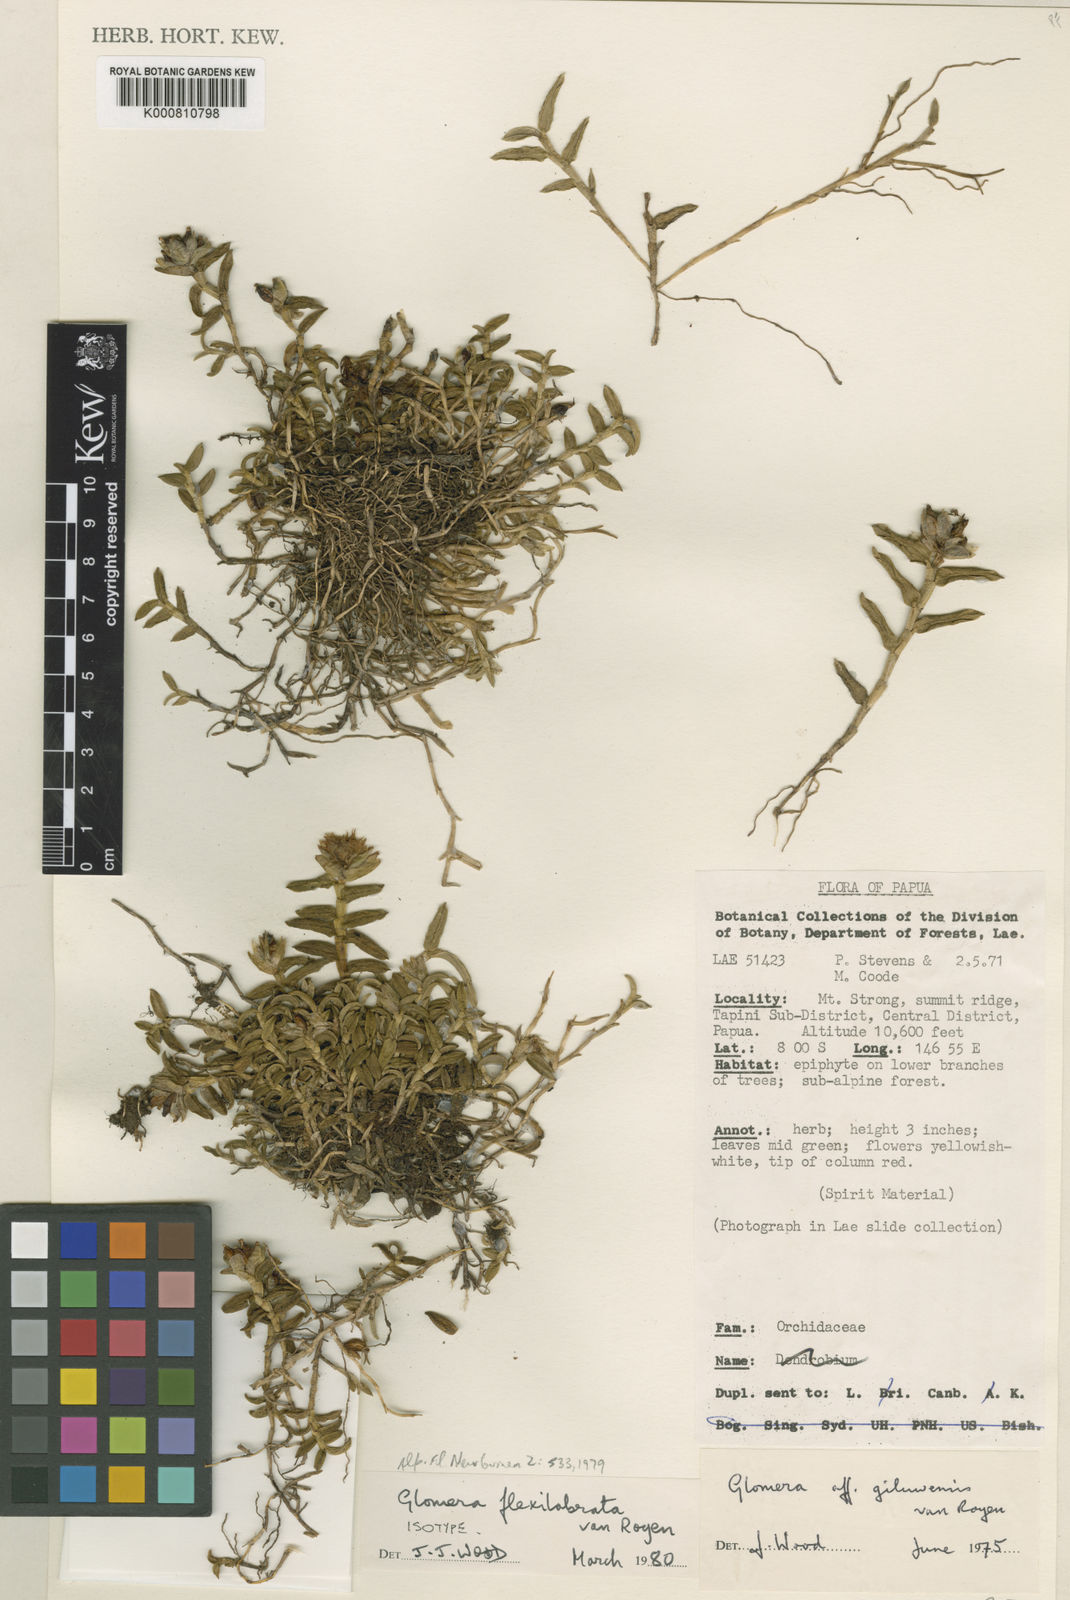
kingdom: Plantae
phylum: Tracheophyta
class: Liliopsida
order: Asparagales
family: Orchidaceae
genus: Glomera
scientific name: Glomera kanke
